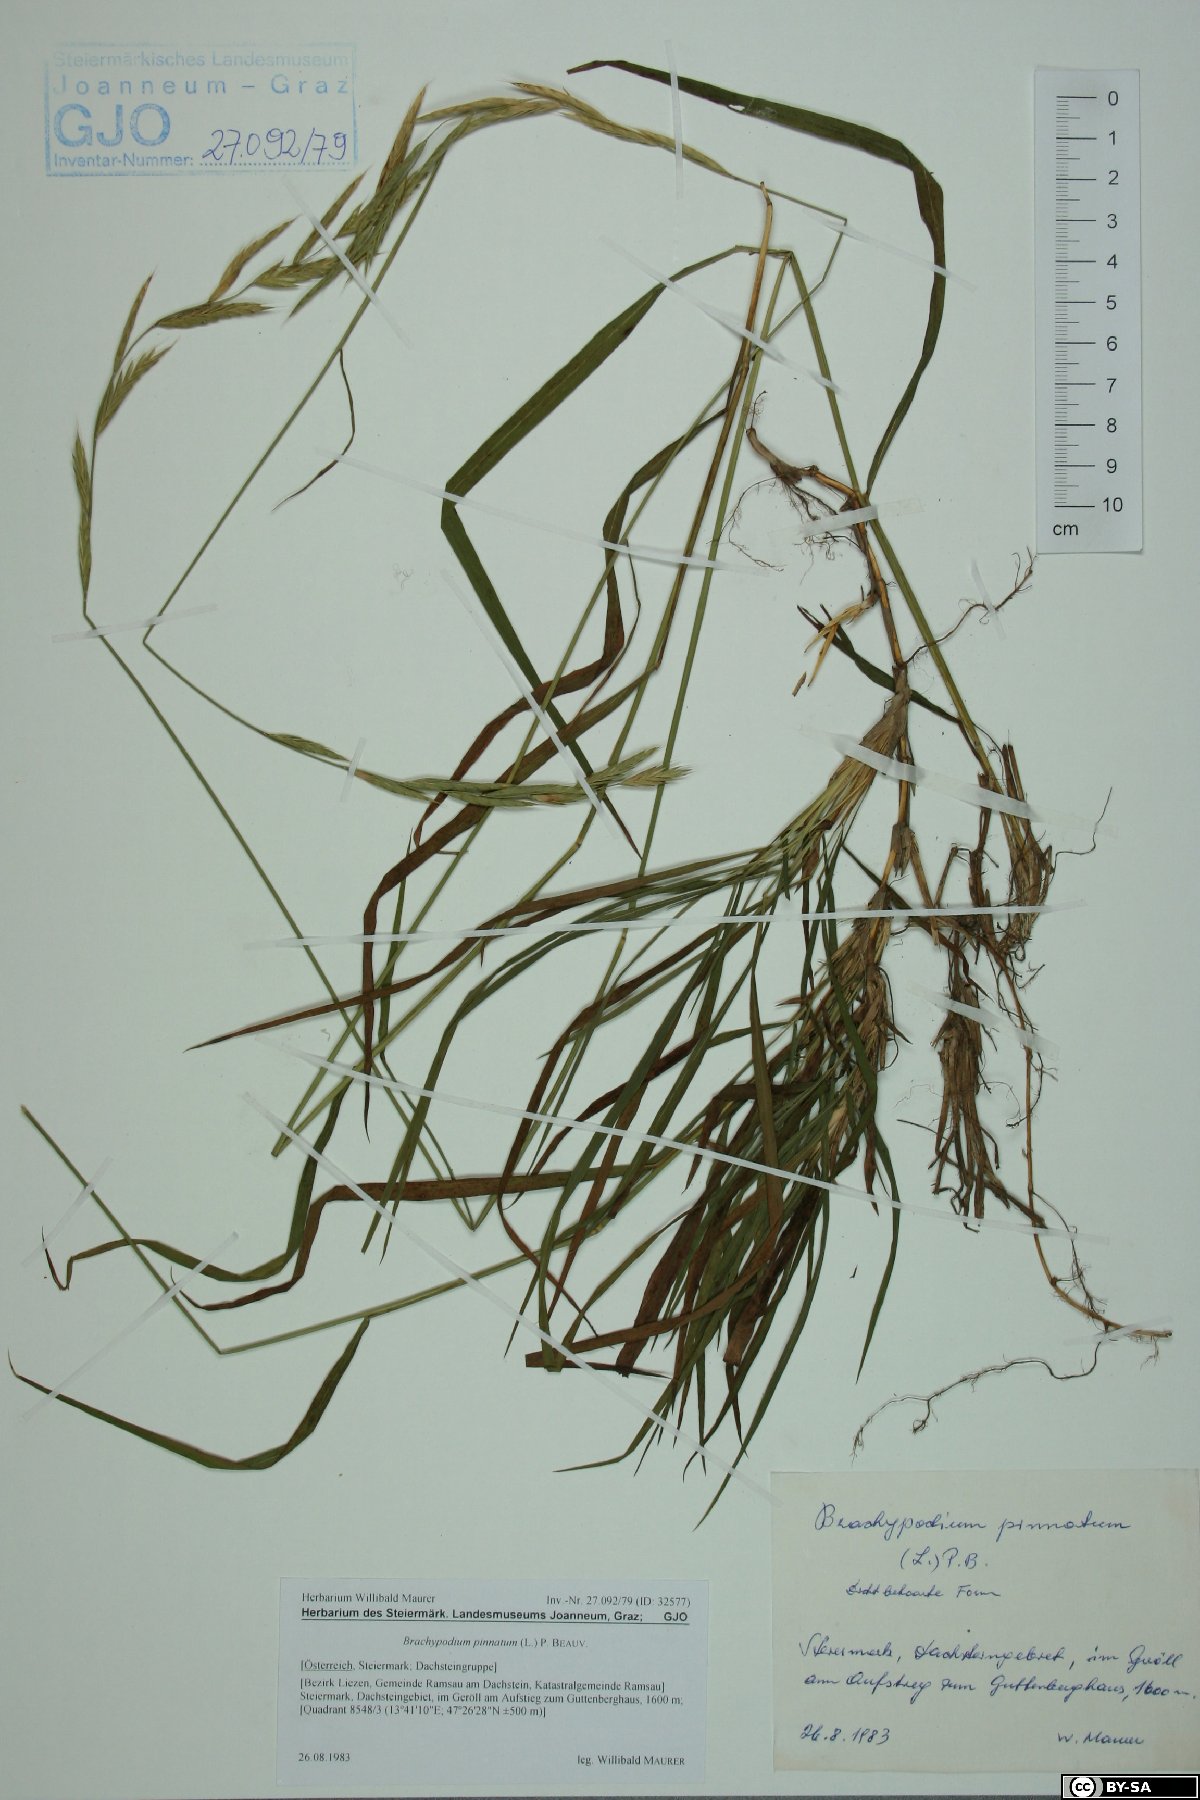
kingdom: Plantae
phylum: Tracheophyta
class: Liliopsida
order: Poales
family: Poaceae
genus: Brachypodium
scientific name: Brachypodium pinnatum
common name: Tor grass
